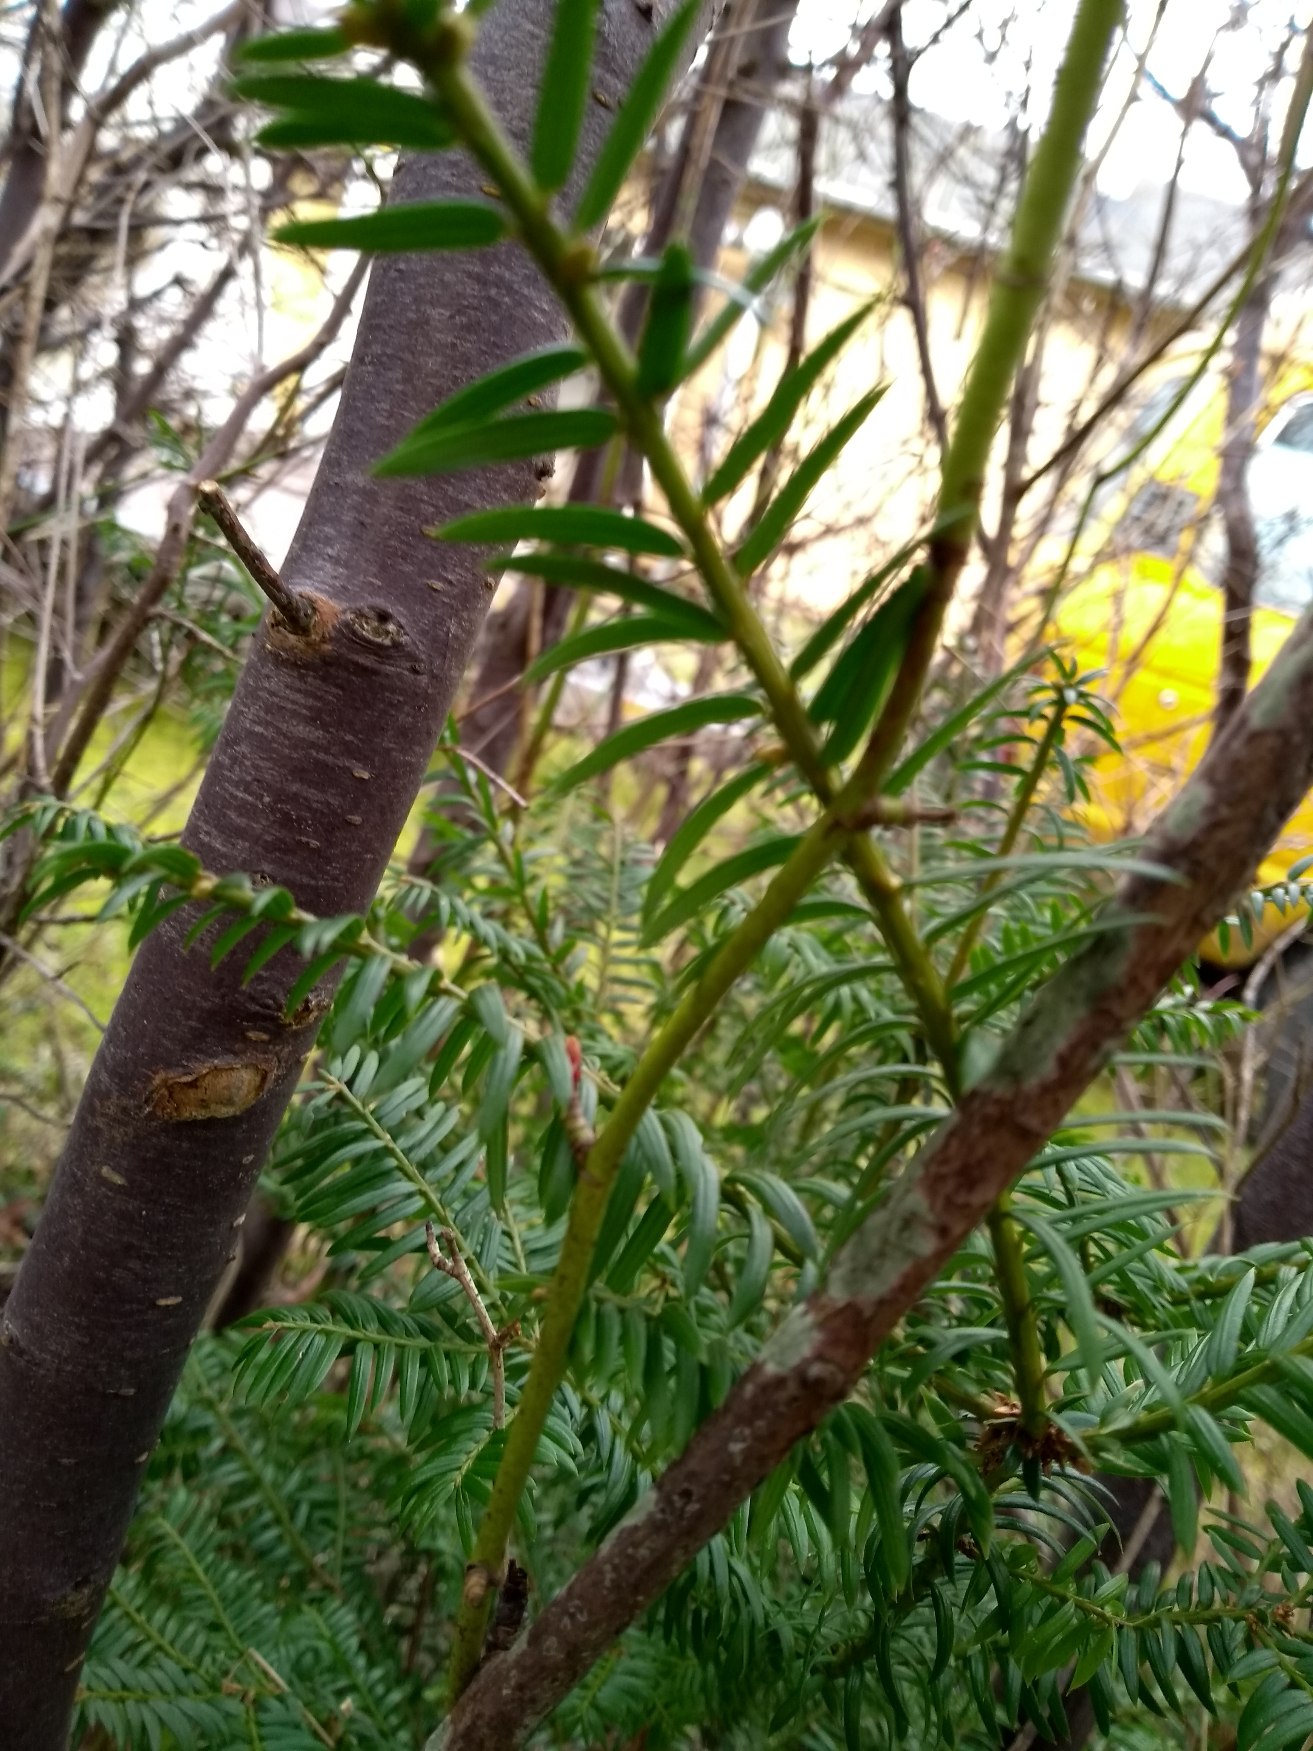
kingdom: Plantae
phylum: Tracheophyta
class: Pinopsida
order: Pinales
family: Taxaceae
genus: Taxus
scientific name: Taxus baccata
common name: Almindelig taks
